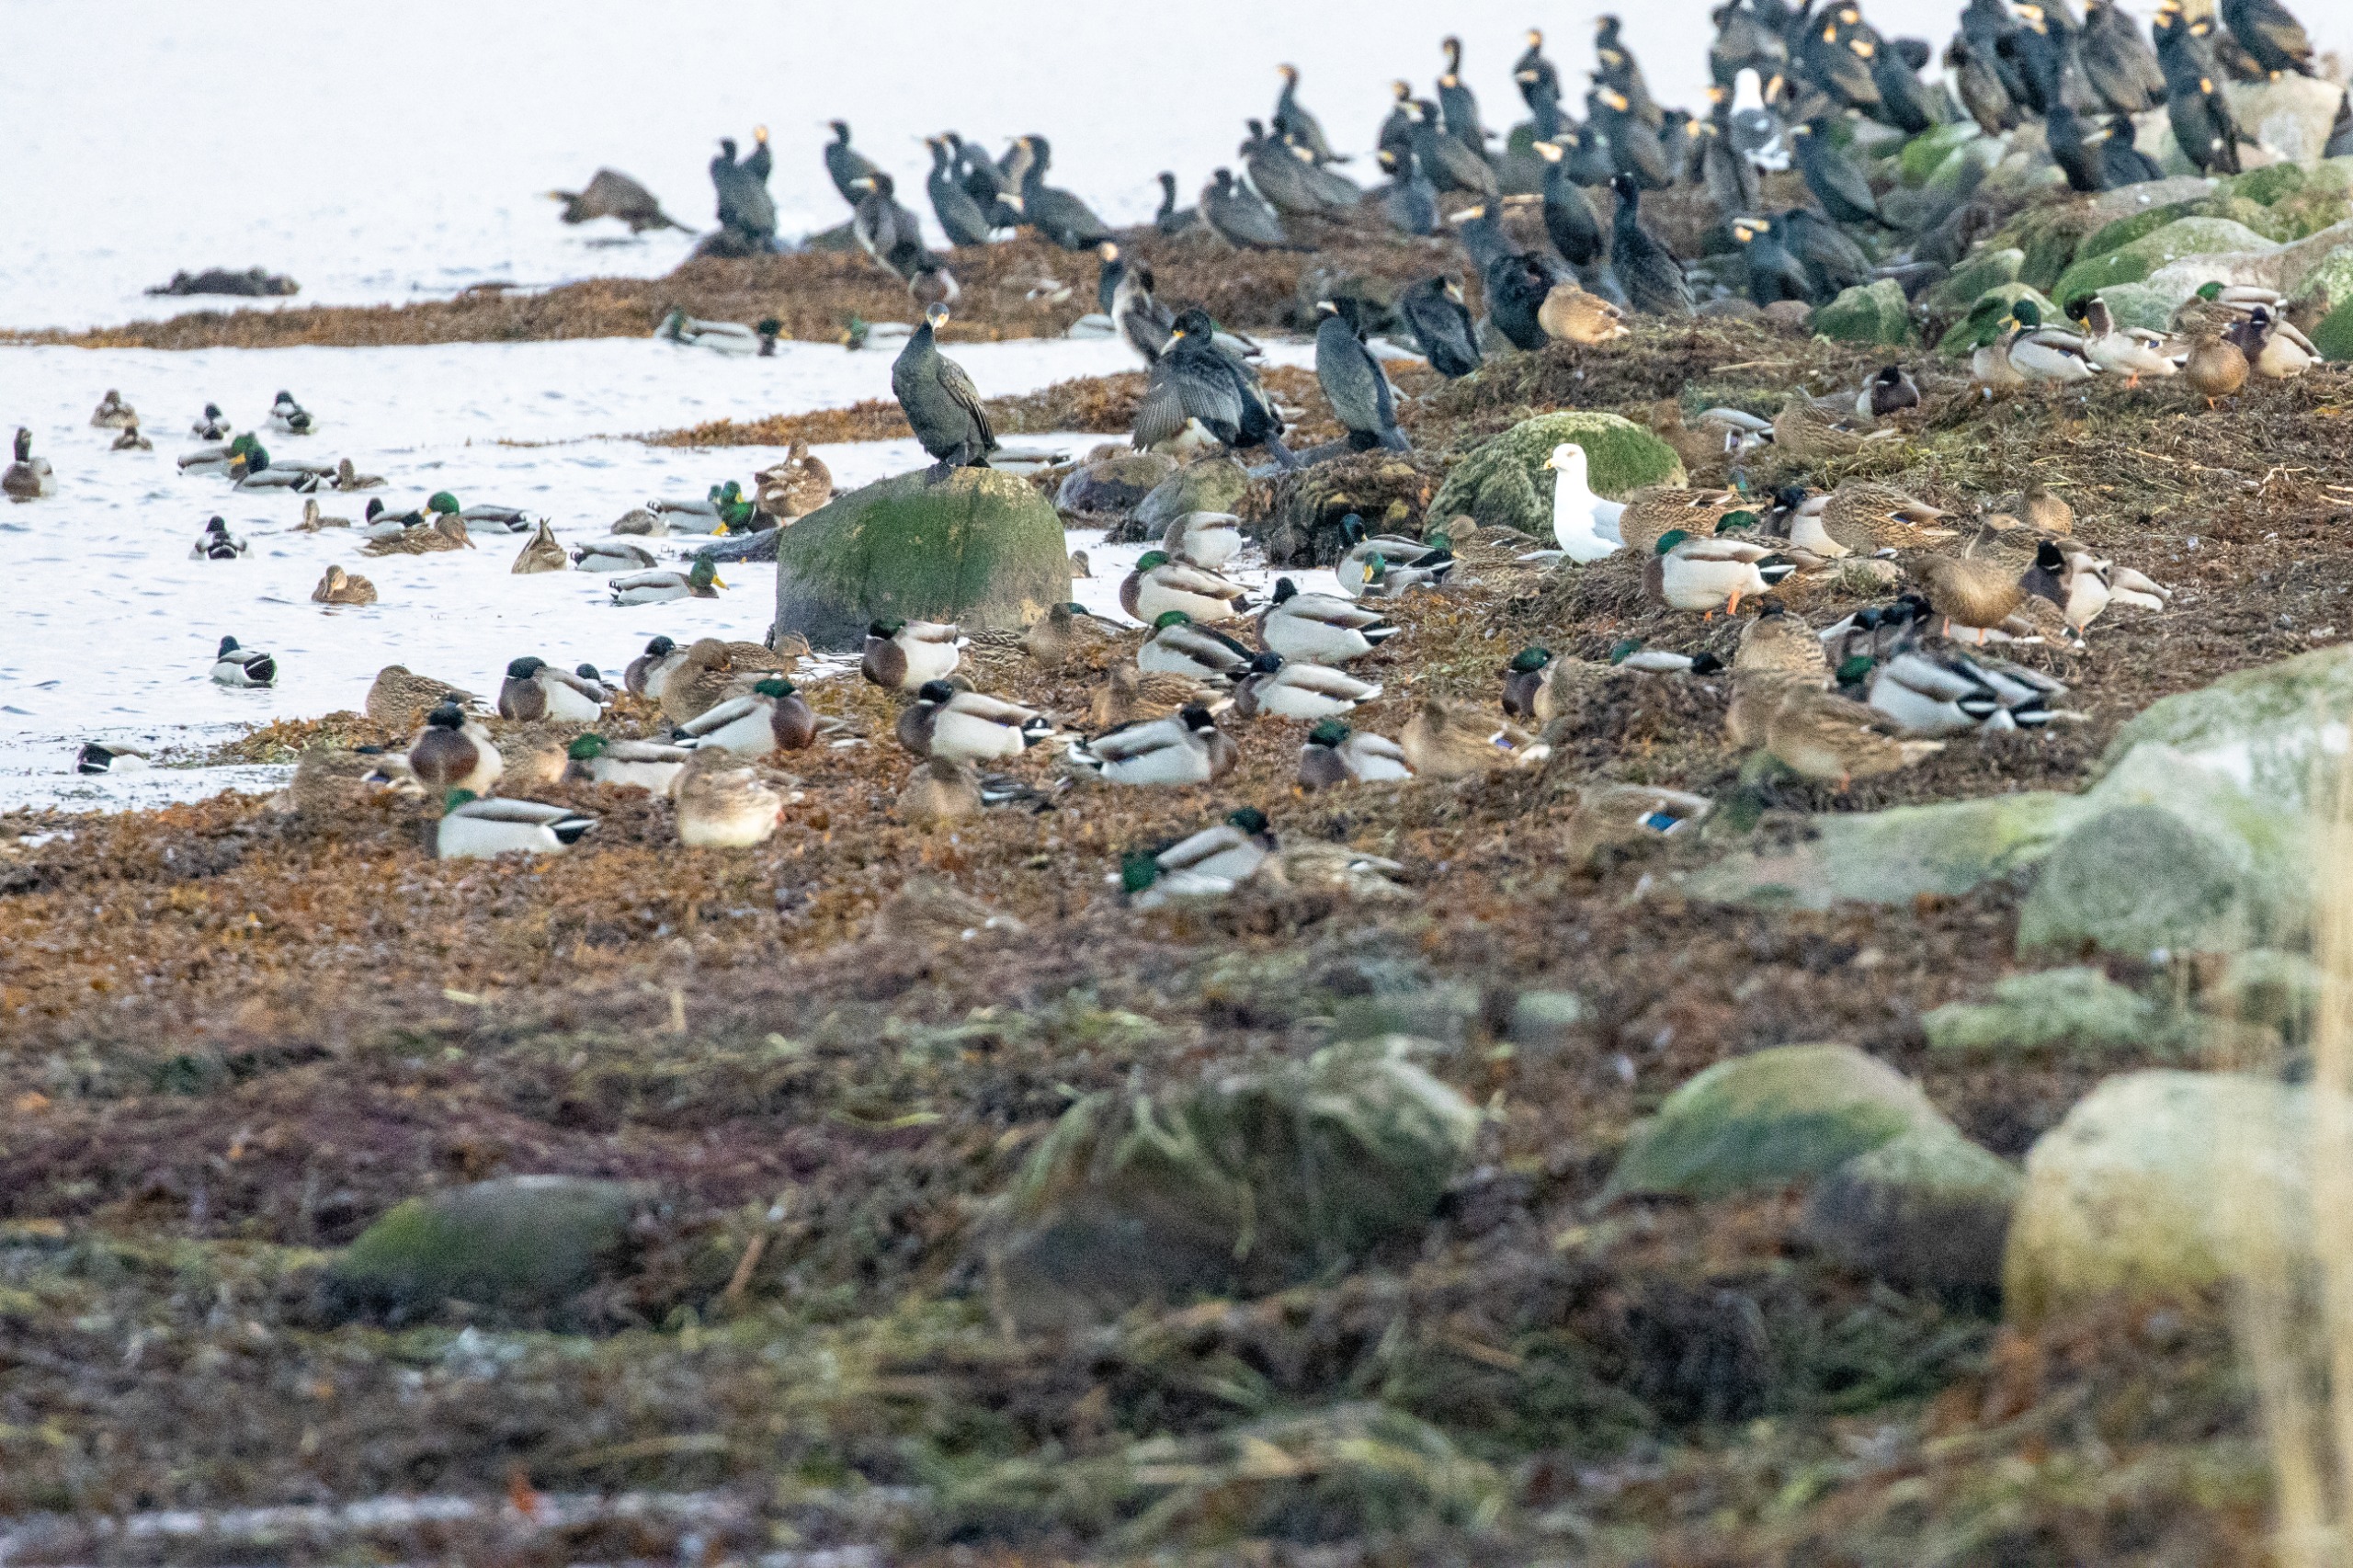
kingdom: Animalia
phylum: Chordata
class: Aves
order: Anseriformes
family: Anatidae
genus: Anas
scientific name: Anas platyrhynchos
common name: Gråand
